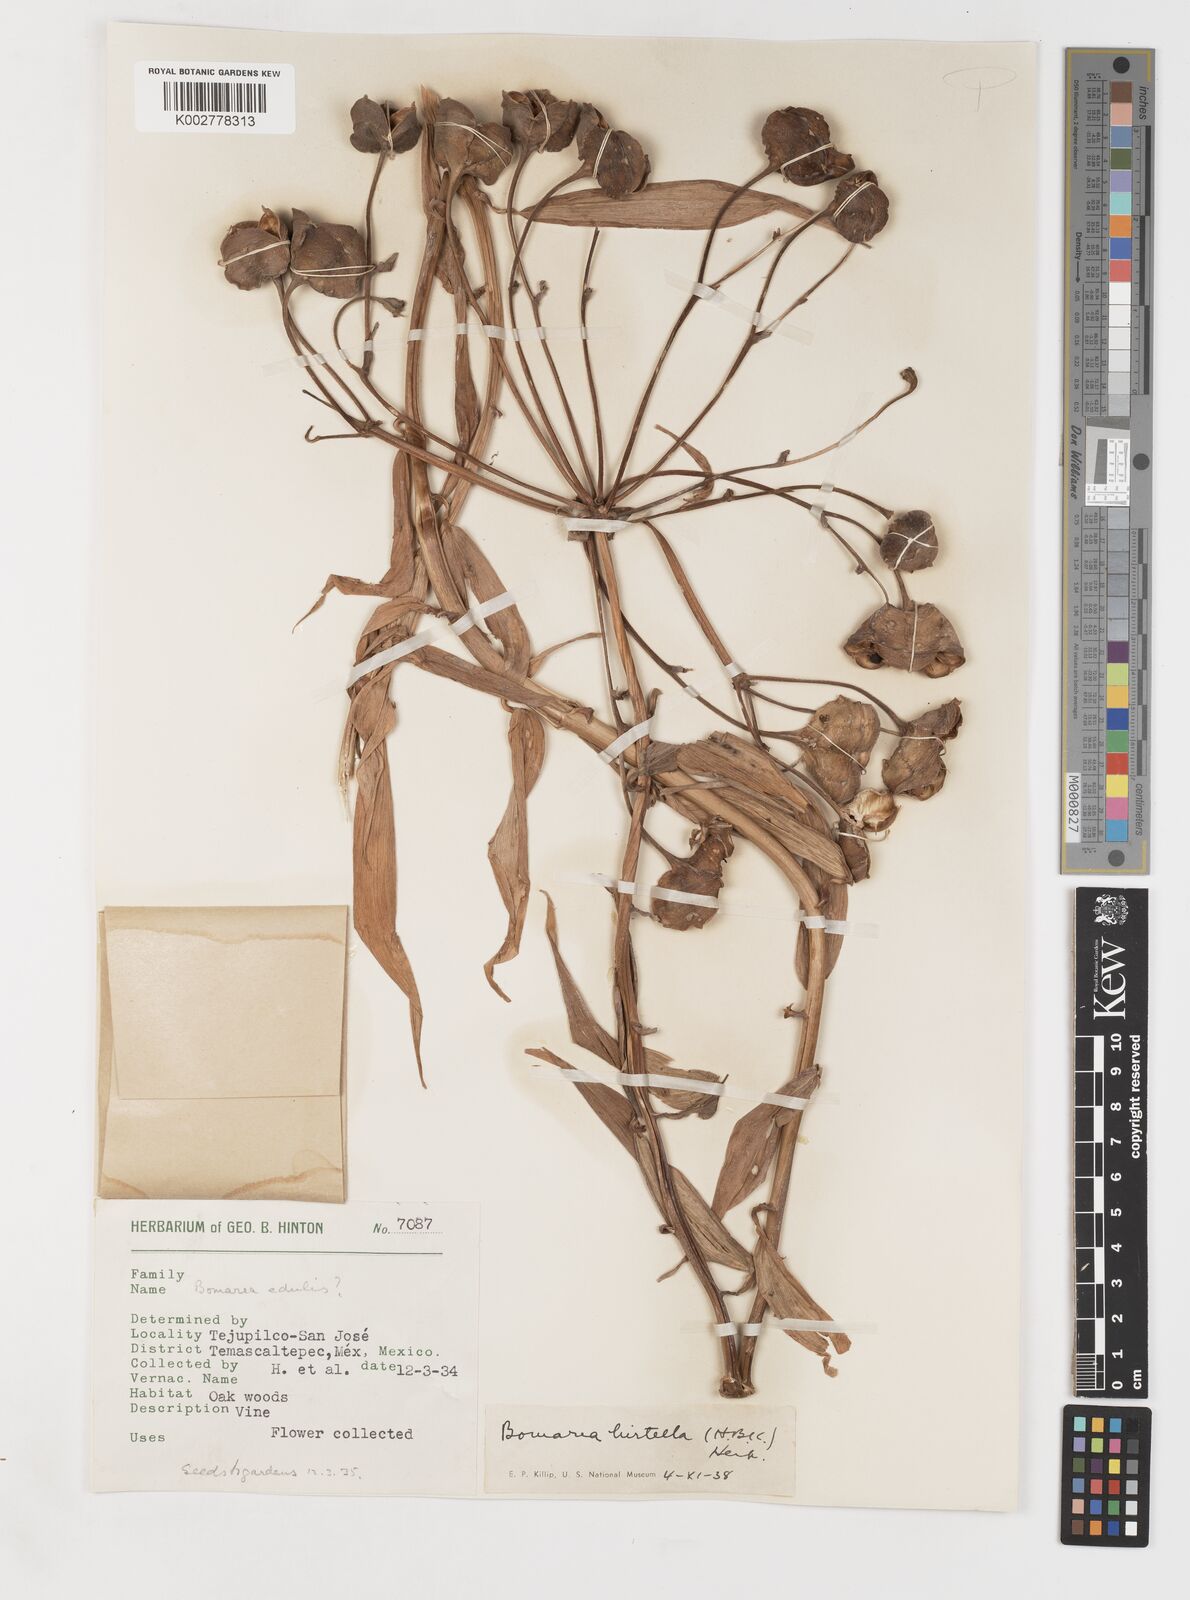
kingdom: Plantae
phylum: Tracheophyta
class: Liliopsida
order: Liliales
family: Alstroemeriaceae
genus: Bomarea
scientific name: Bomarea edulis
